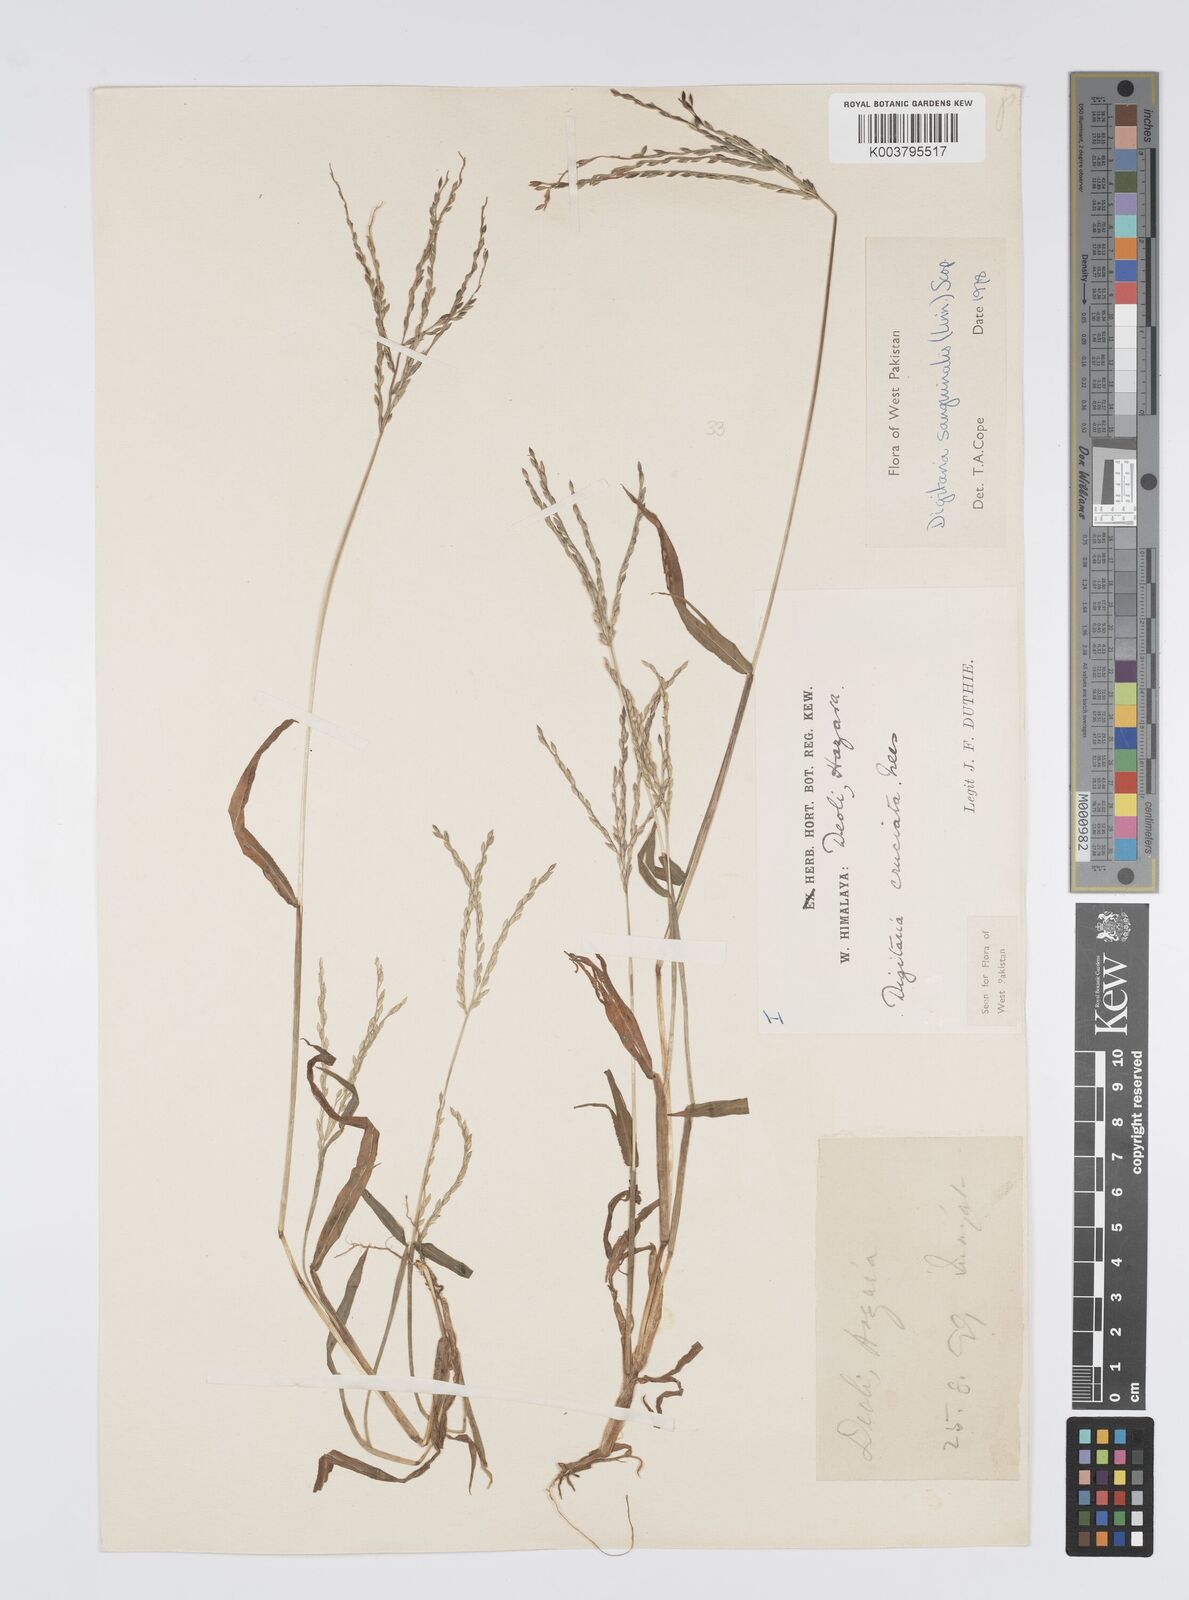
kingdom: Plantae
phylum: Tracheophyta
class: Liliopsida
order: Poales
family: Poaceae
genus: Digitaria
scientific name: Digitaria sanguinalis
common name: Hairy crabgrass
